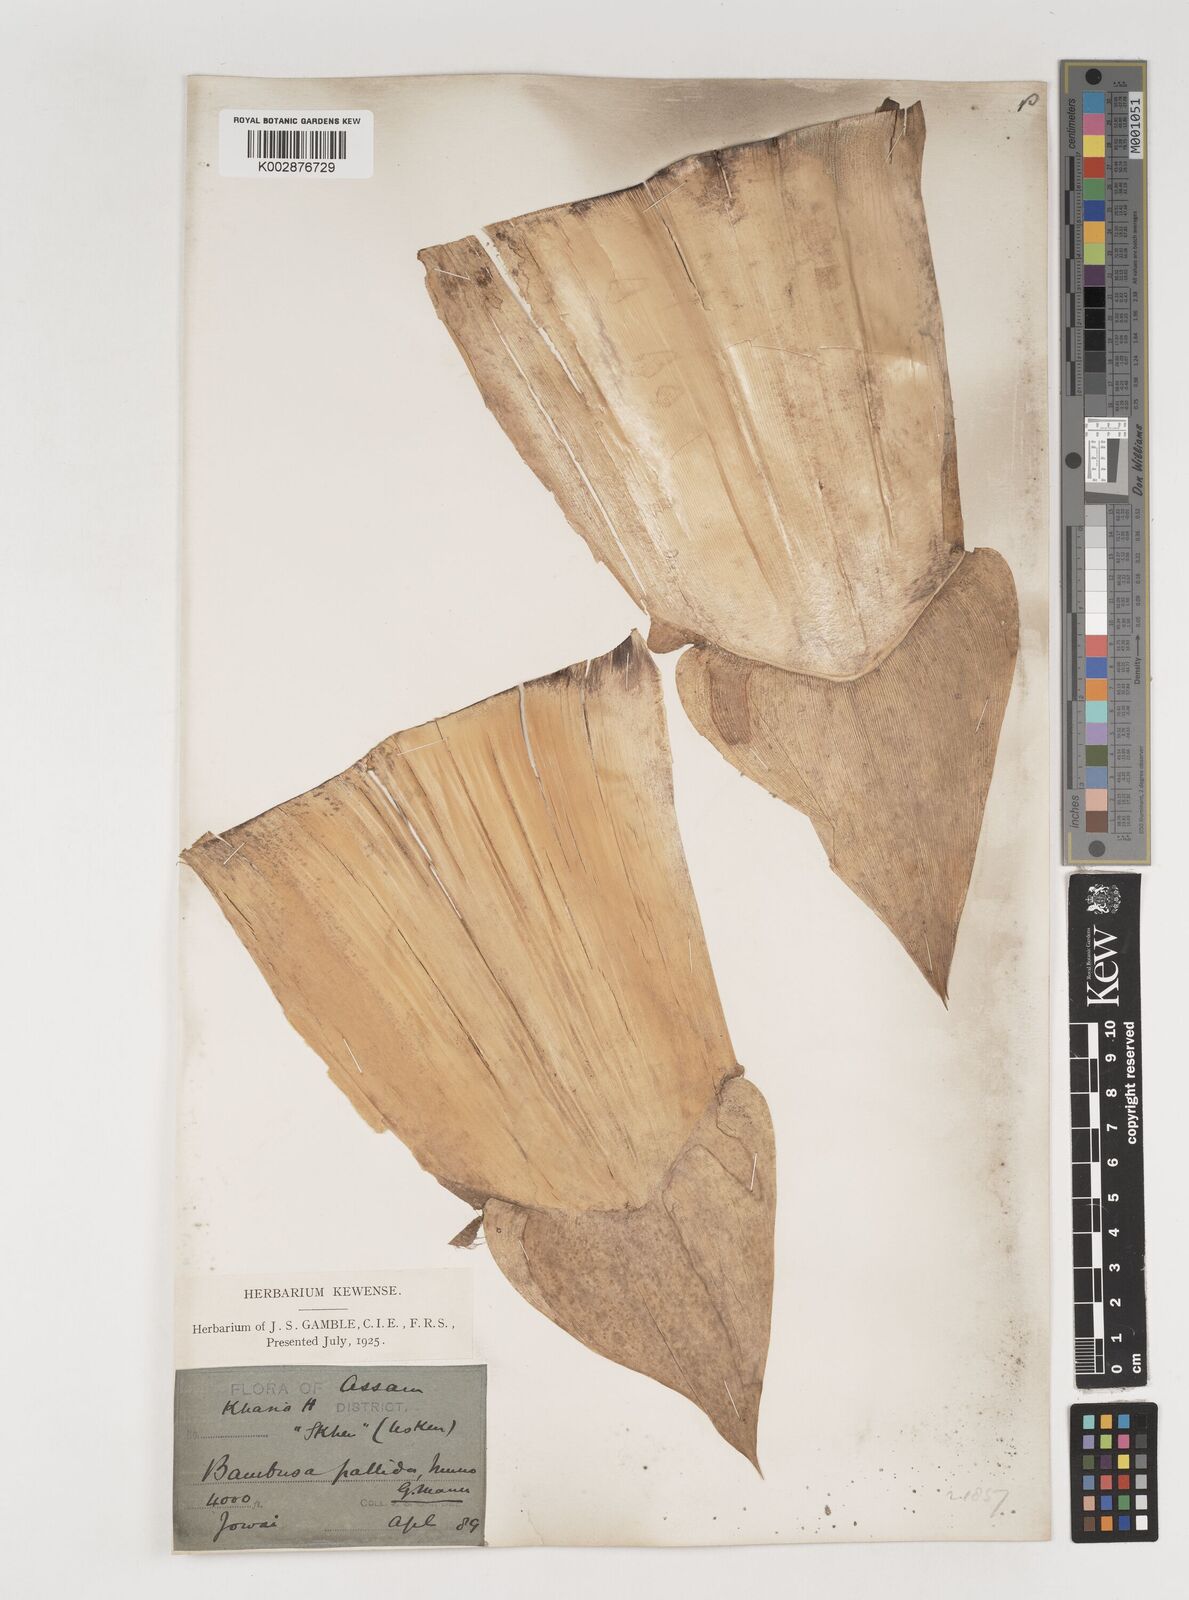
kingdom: Plantae
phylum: Tracheophyta
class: Liliopsida
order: Poales
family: Poaceae
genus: Bambusa
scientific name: Bambusa pallida
